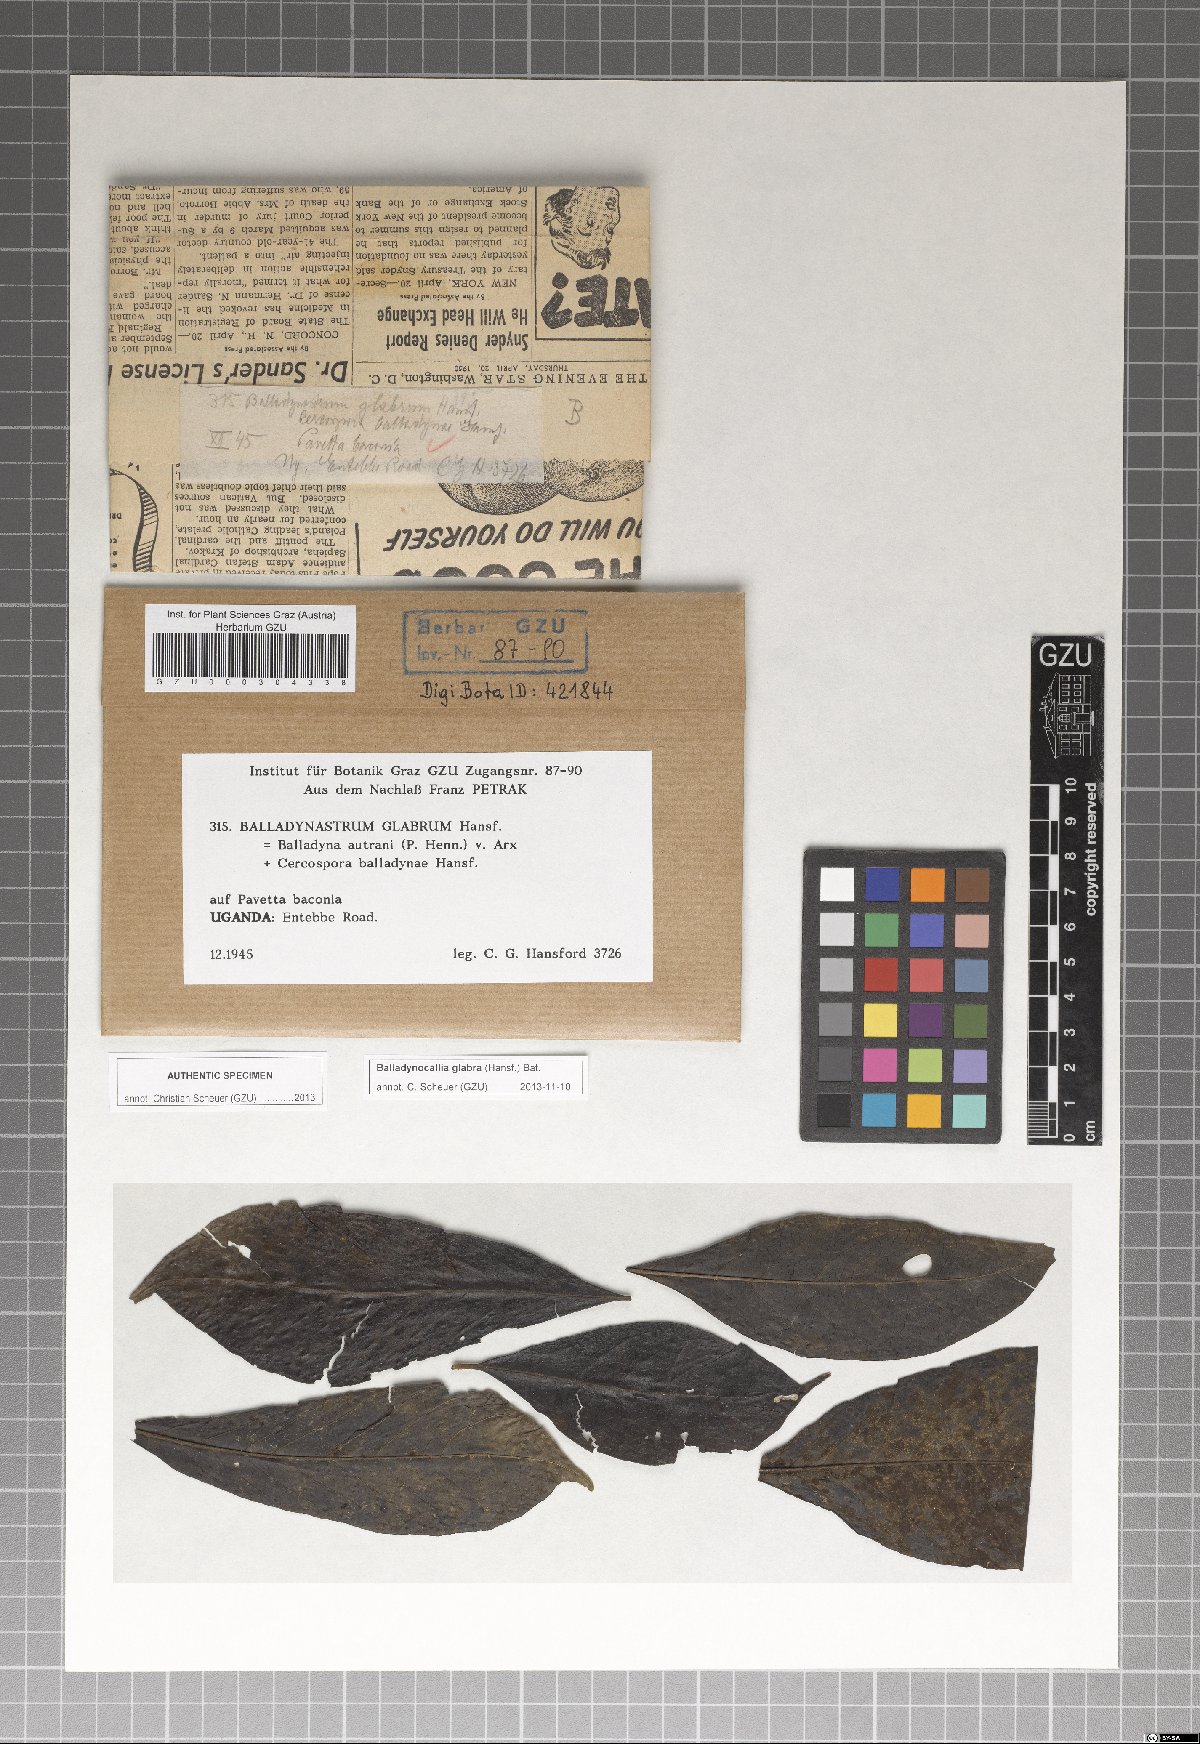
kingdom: Fungi
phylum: Ascomycota
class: Dothideomycetes
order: Dothideales
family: Parodiopsidaceae
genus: Balladynocallia
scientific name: Balladynocallia glabra
